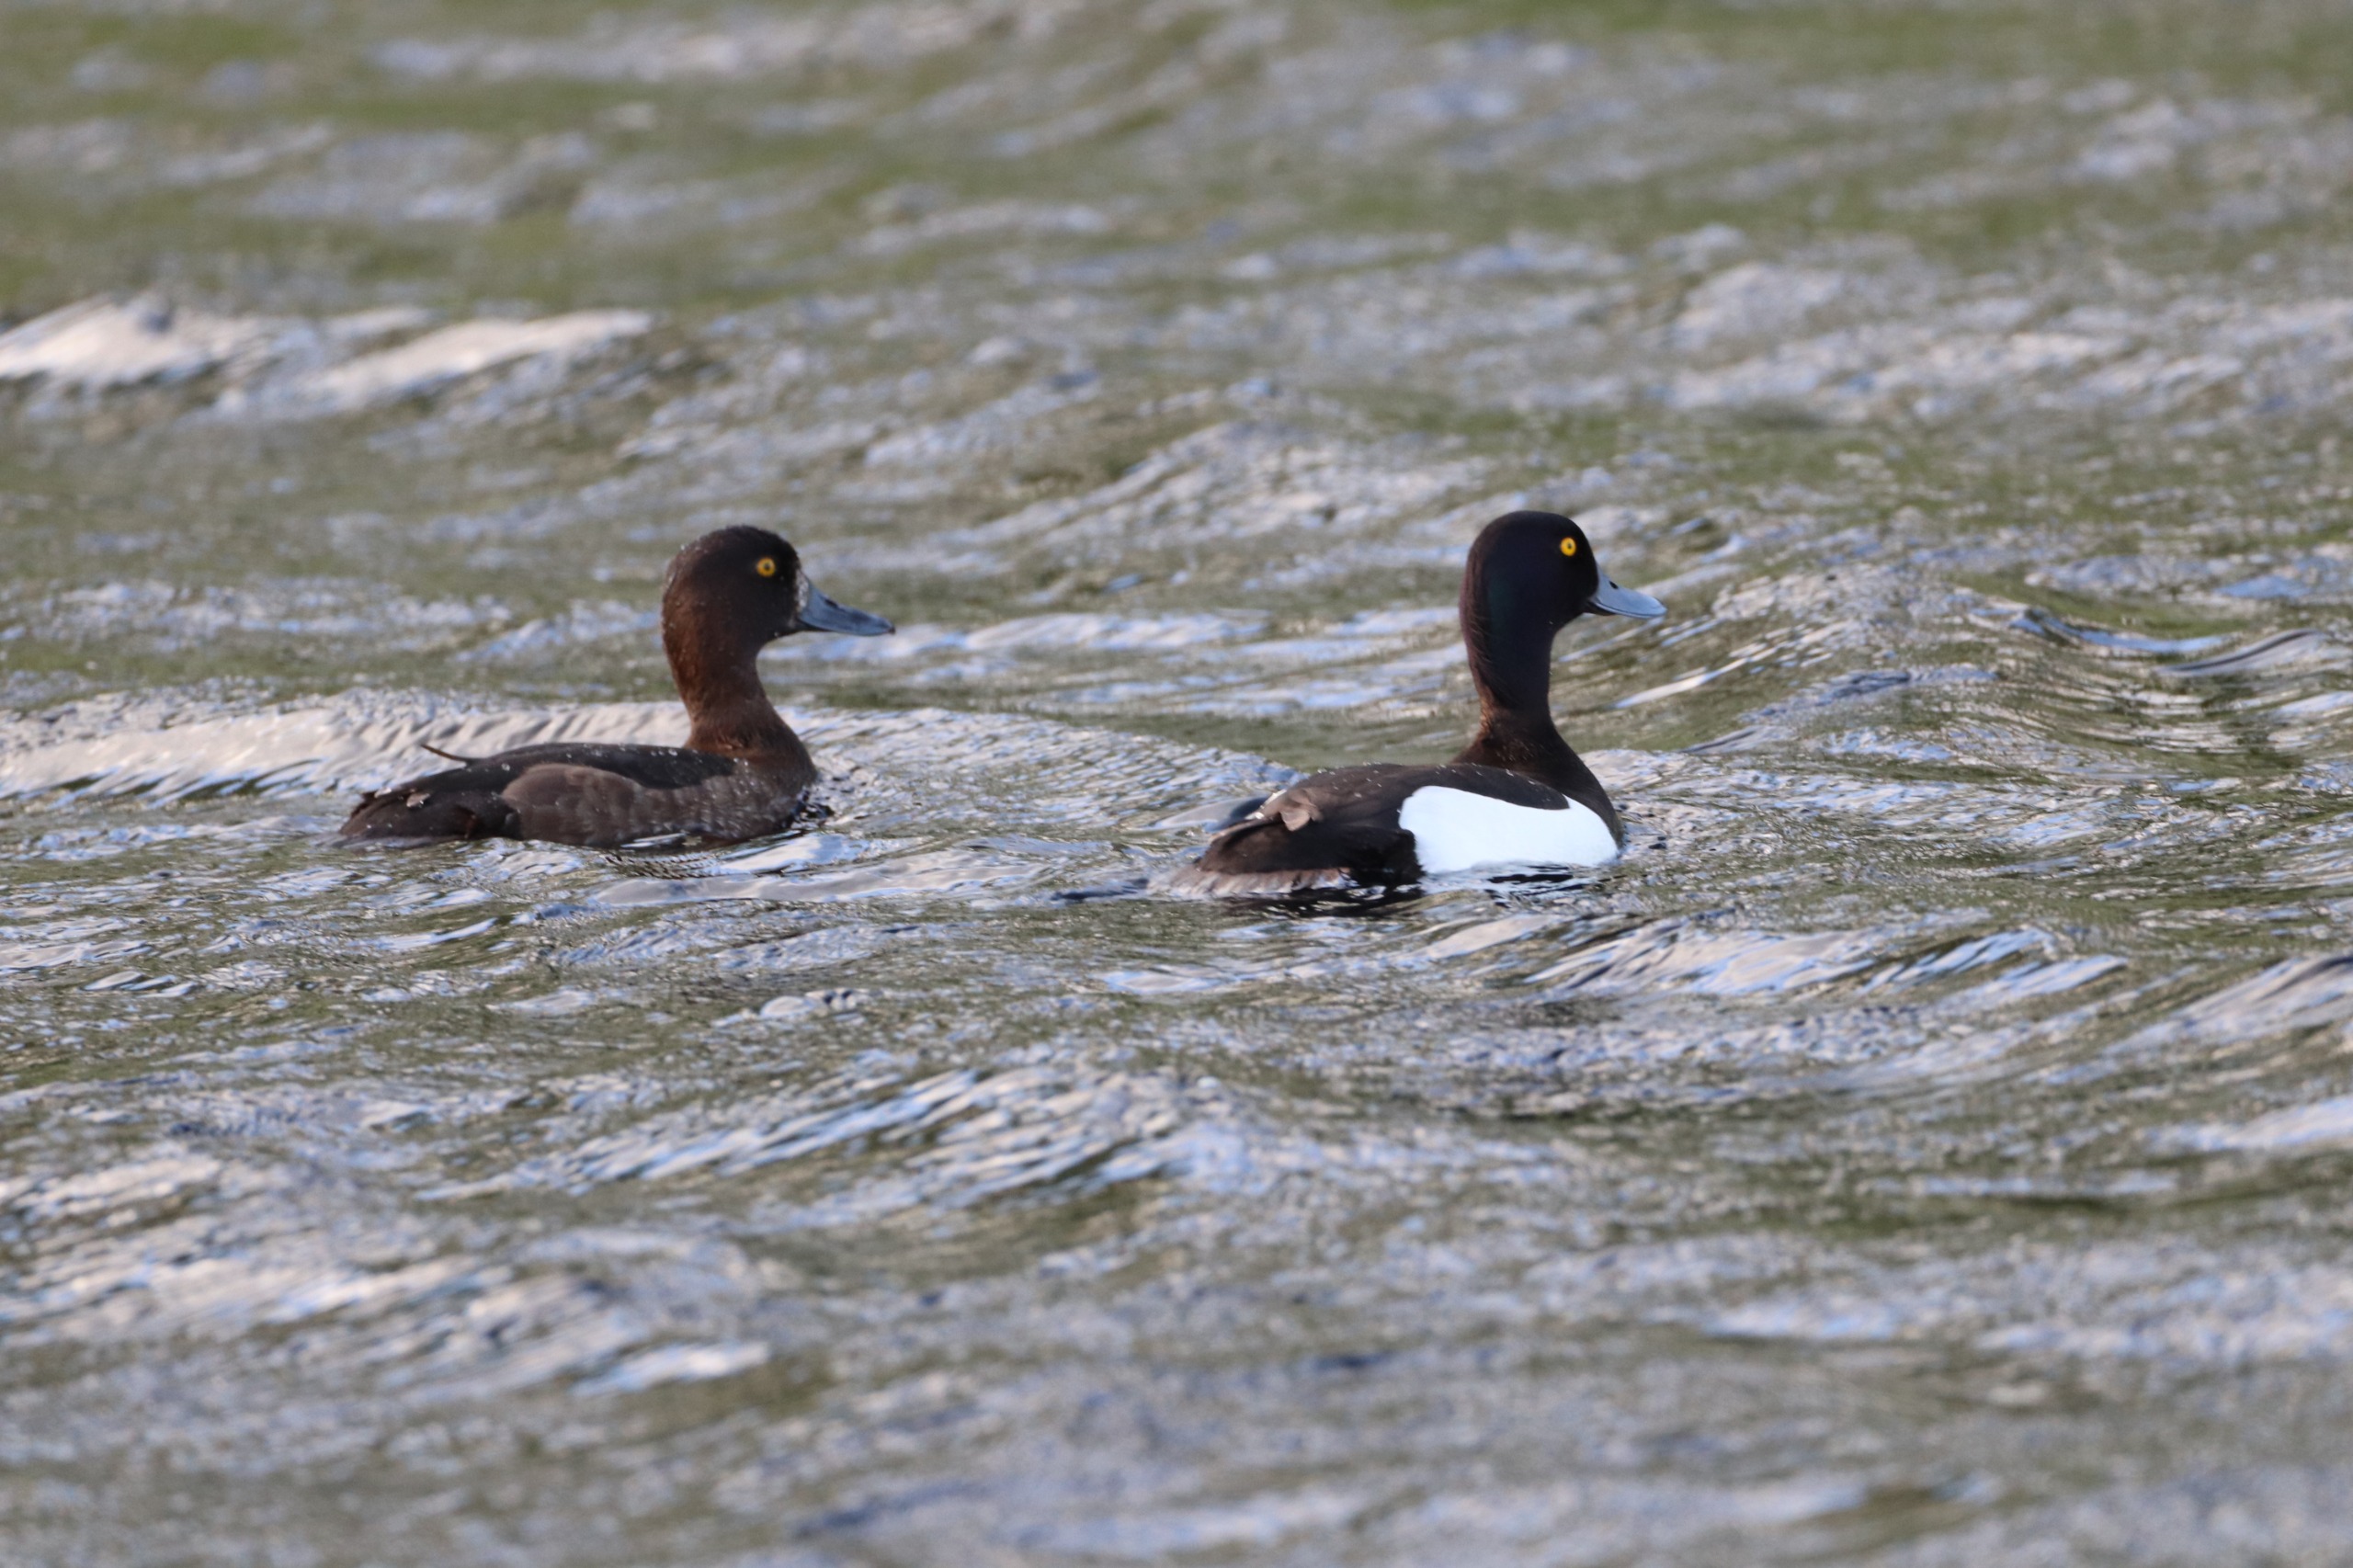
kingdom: Animalia
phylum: Chordata
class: Aves
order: Anseriformes
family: Anatidae
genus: Aythya
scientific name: Aythya fuligula
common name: Troldand
